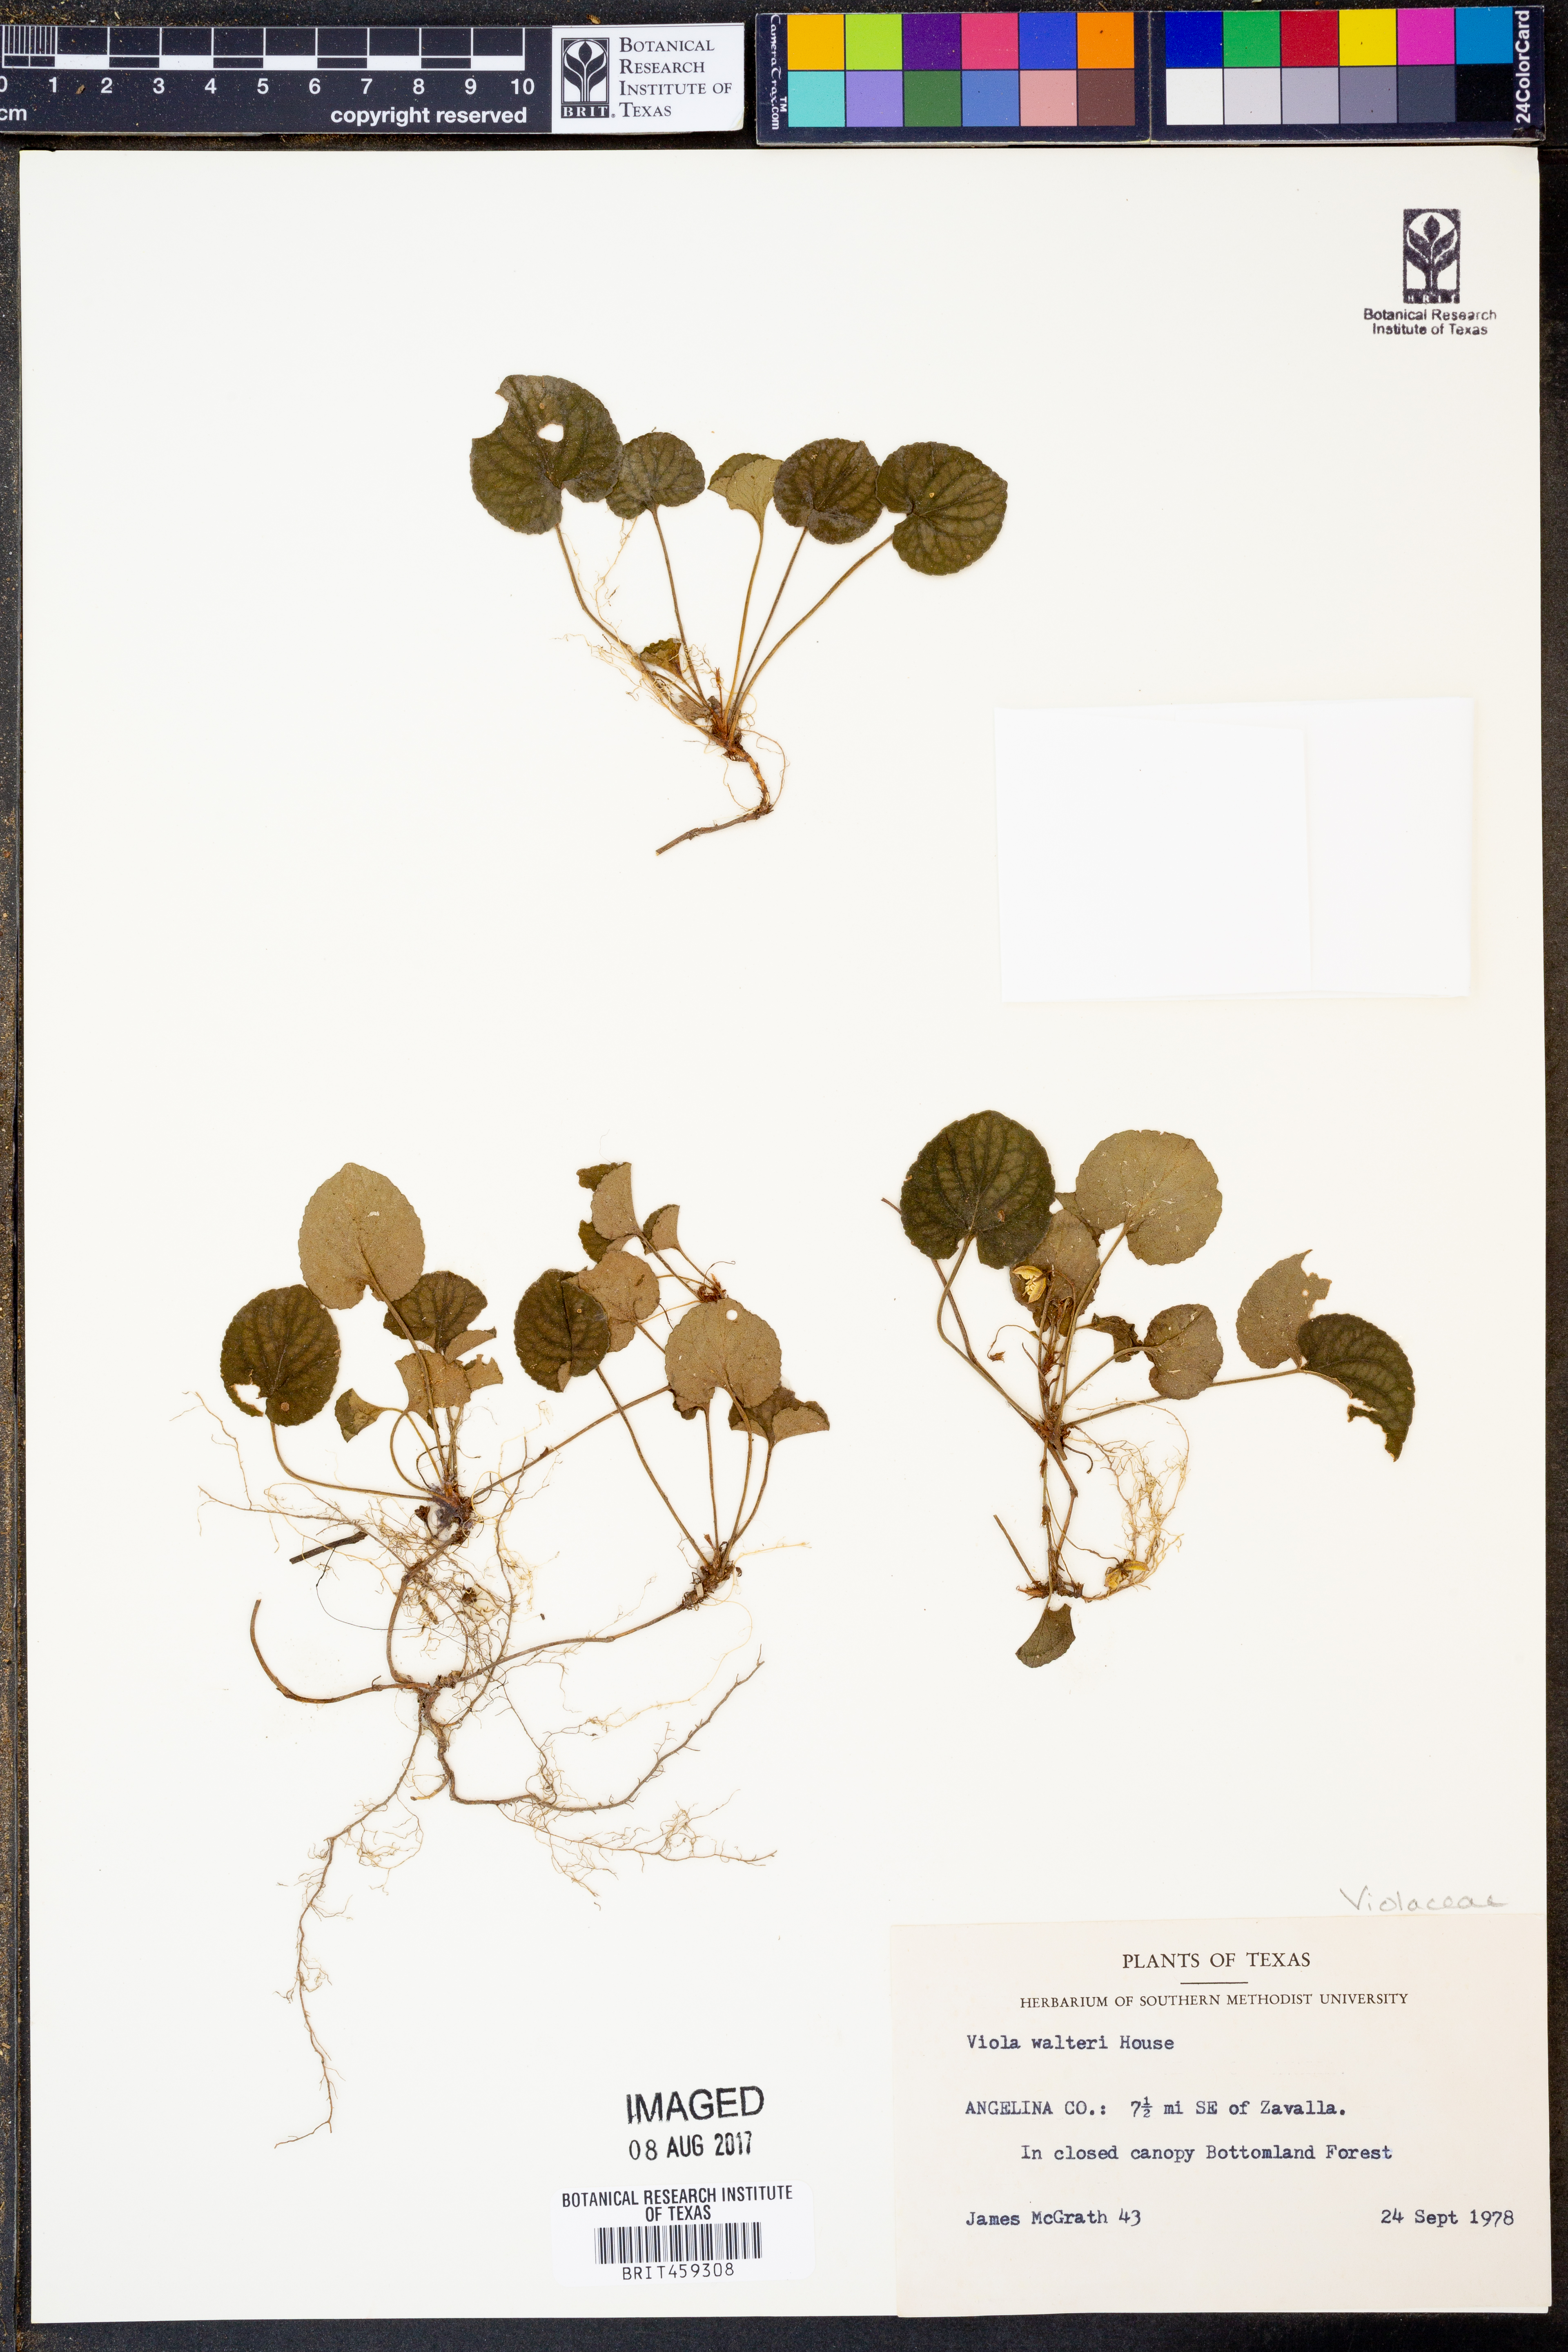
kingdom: Plantae
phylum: Tracheophyta
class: Magnoliopsida
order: Malpighiales
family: Violaceae
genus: Viola
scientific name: Viola walteri
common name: Prostrate southern violet
